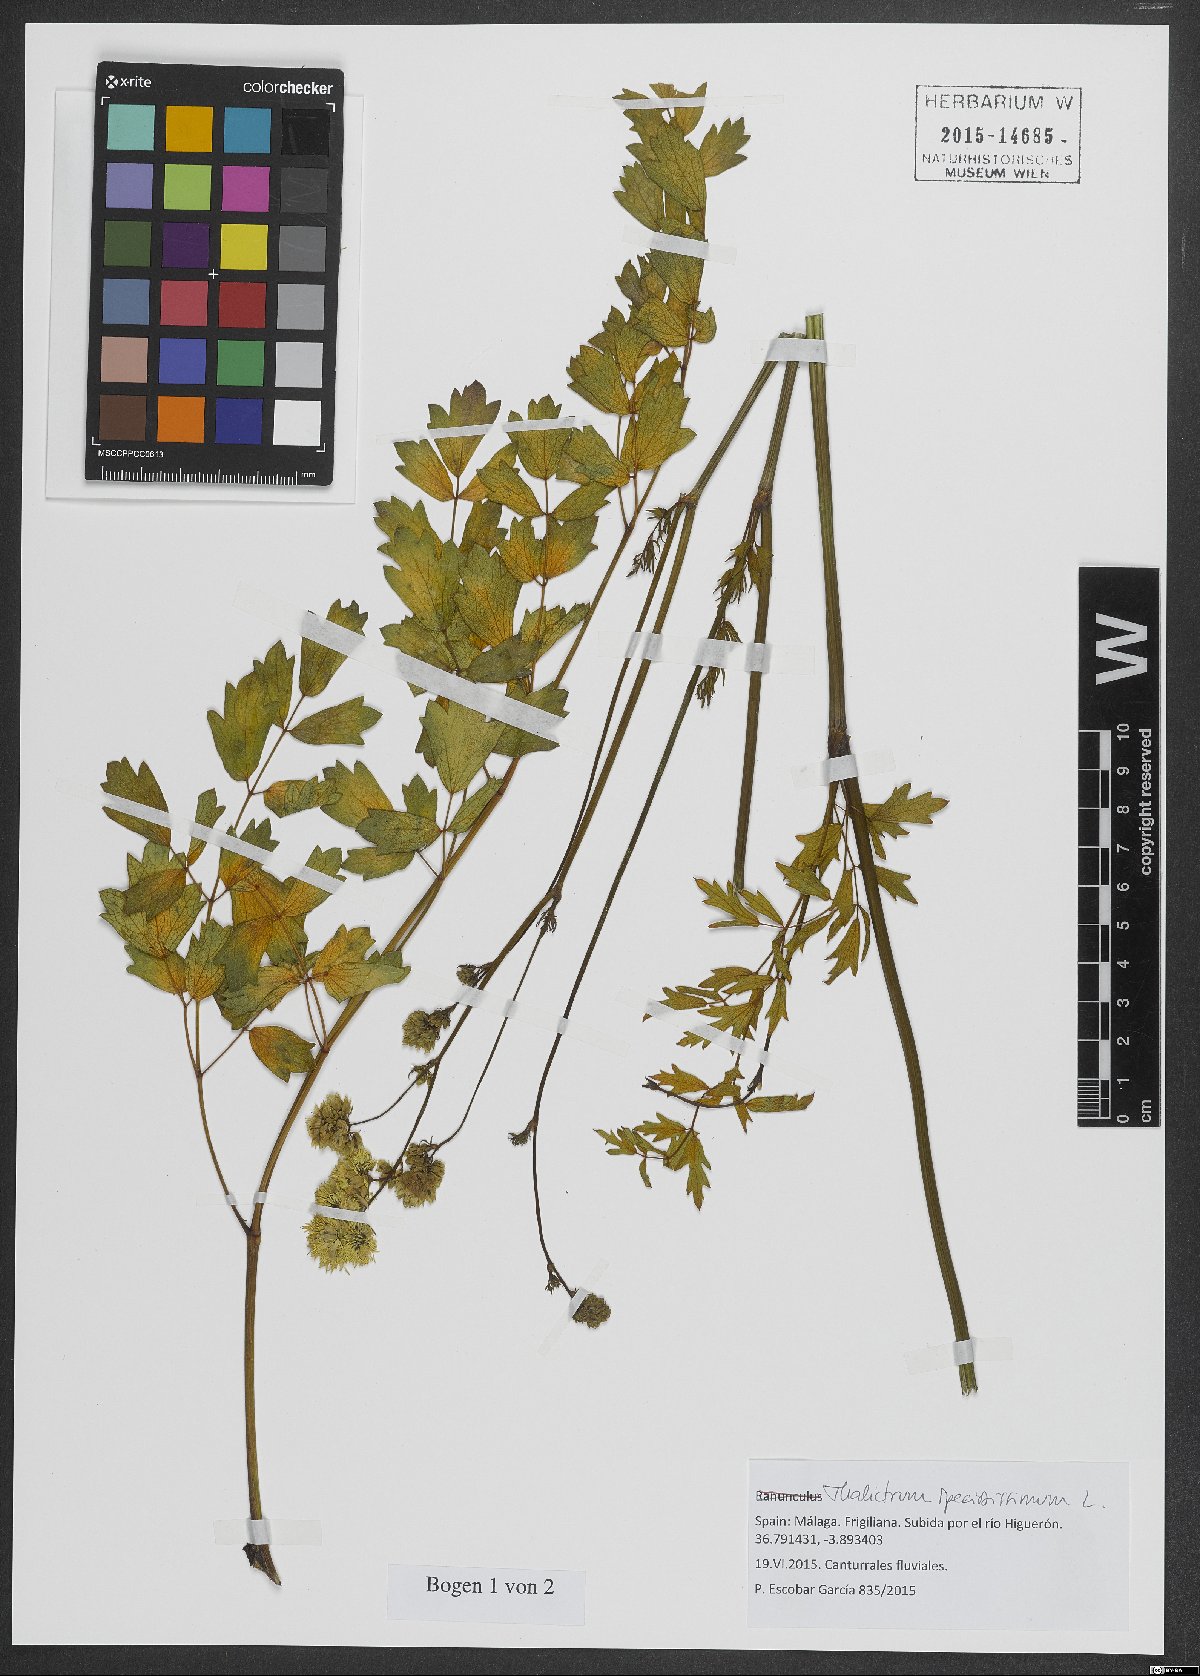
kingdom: Plantae
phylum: Tracheophyta
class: Magnoliopsida
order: Ranunculales
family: Ranunculaceae
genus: Thalictrum
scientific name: Thalictrum speciosissimum
